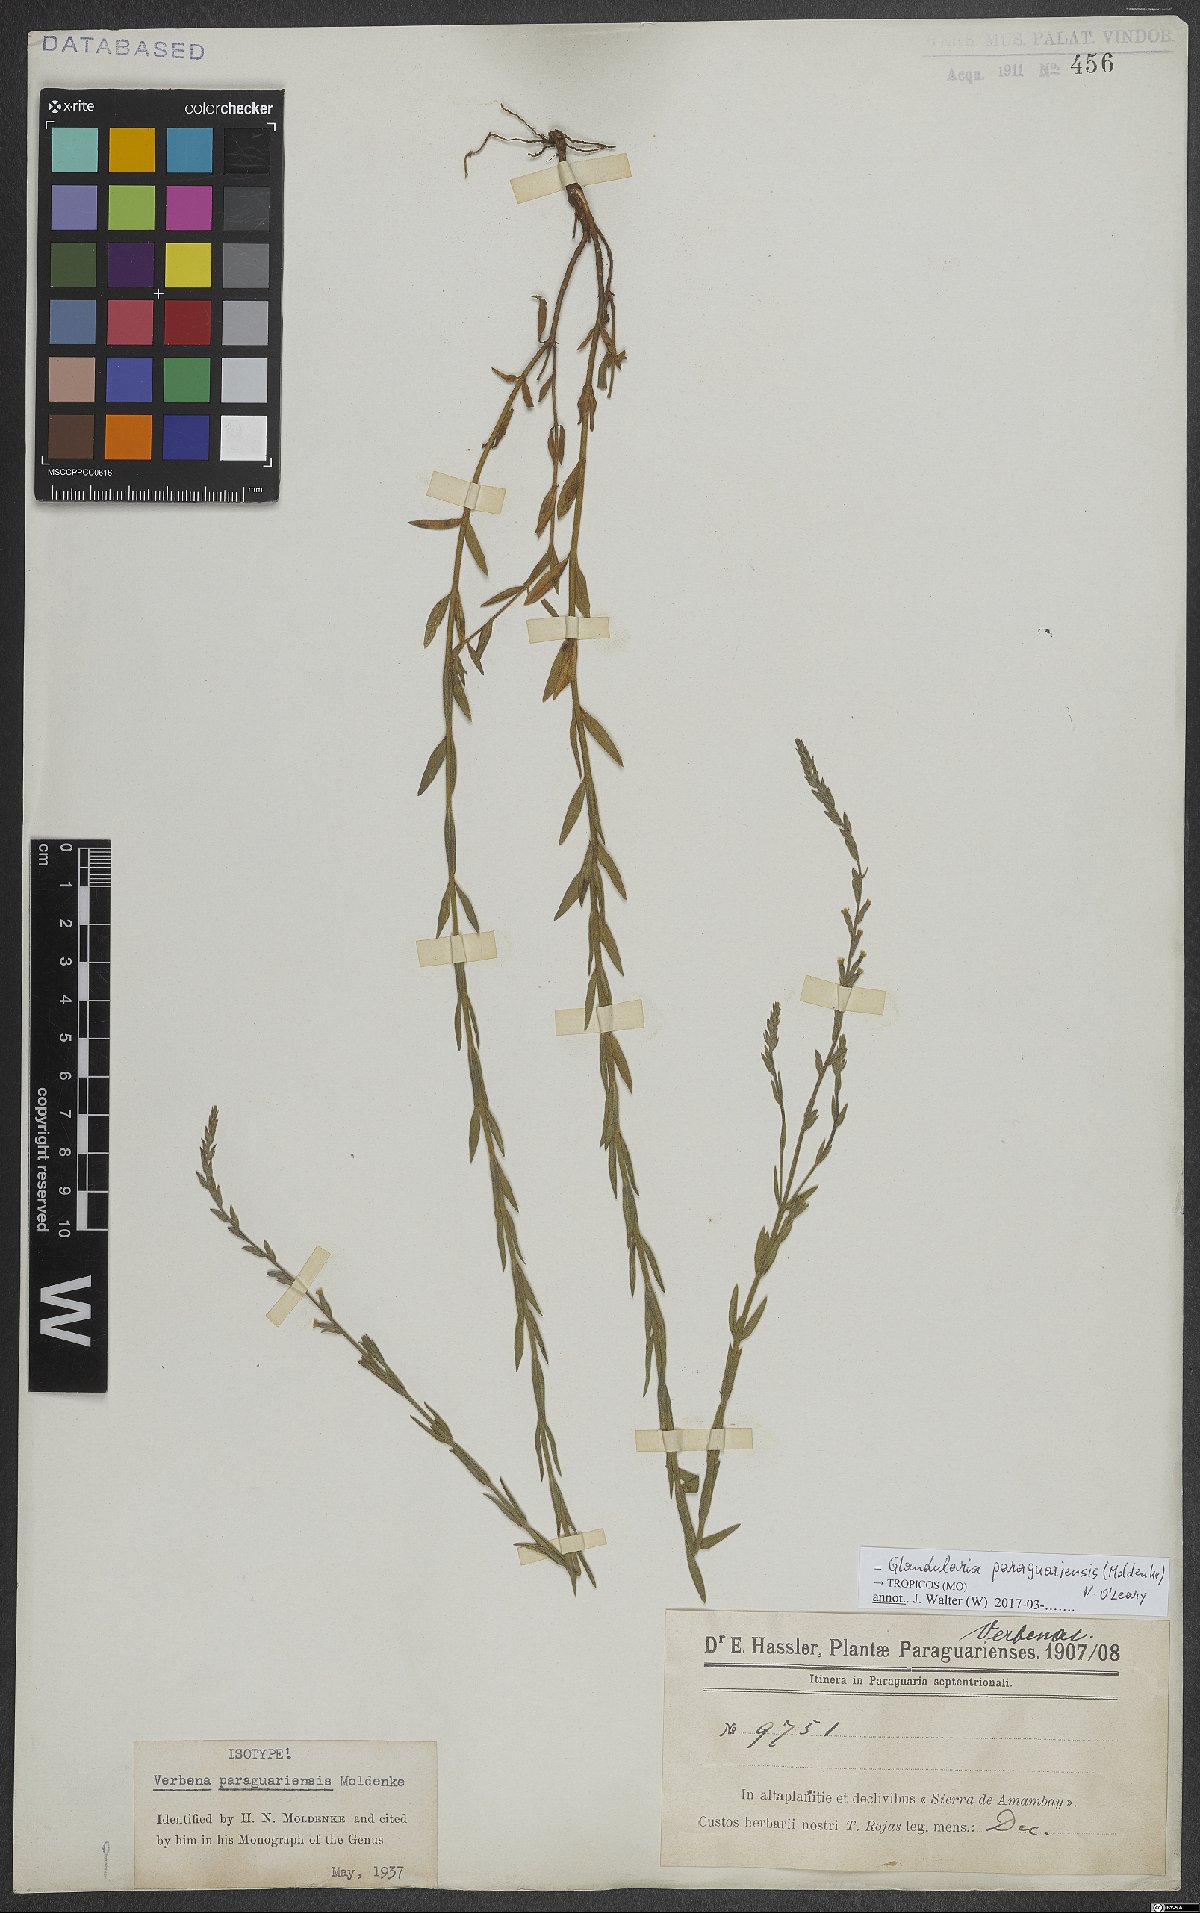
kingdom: Plantae
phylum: Tracheophyta
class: Magnoliopsida
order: Lamiales
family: Verbenaceae
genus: Verbena
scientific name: Verbena paraguariensis
